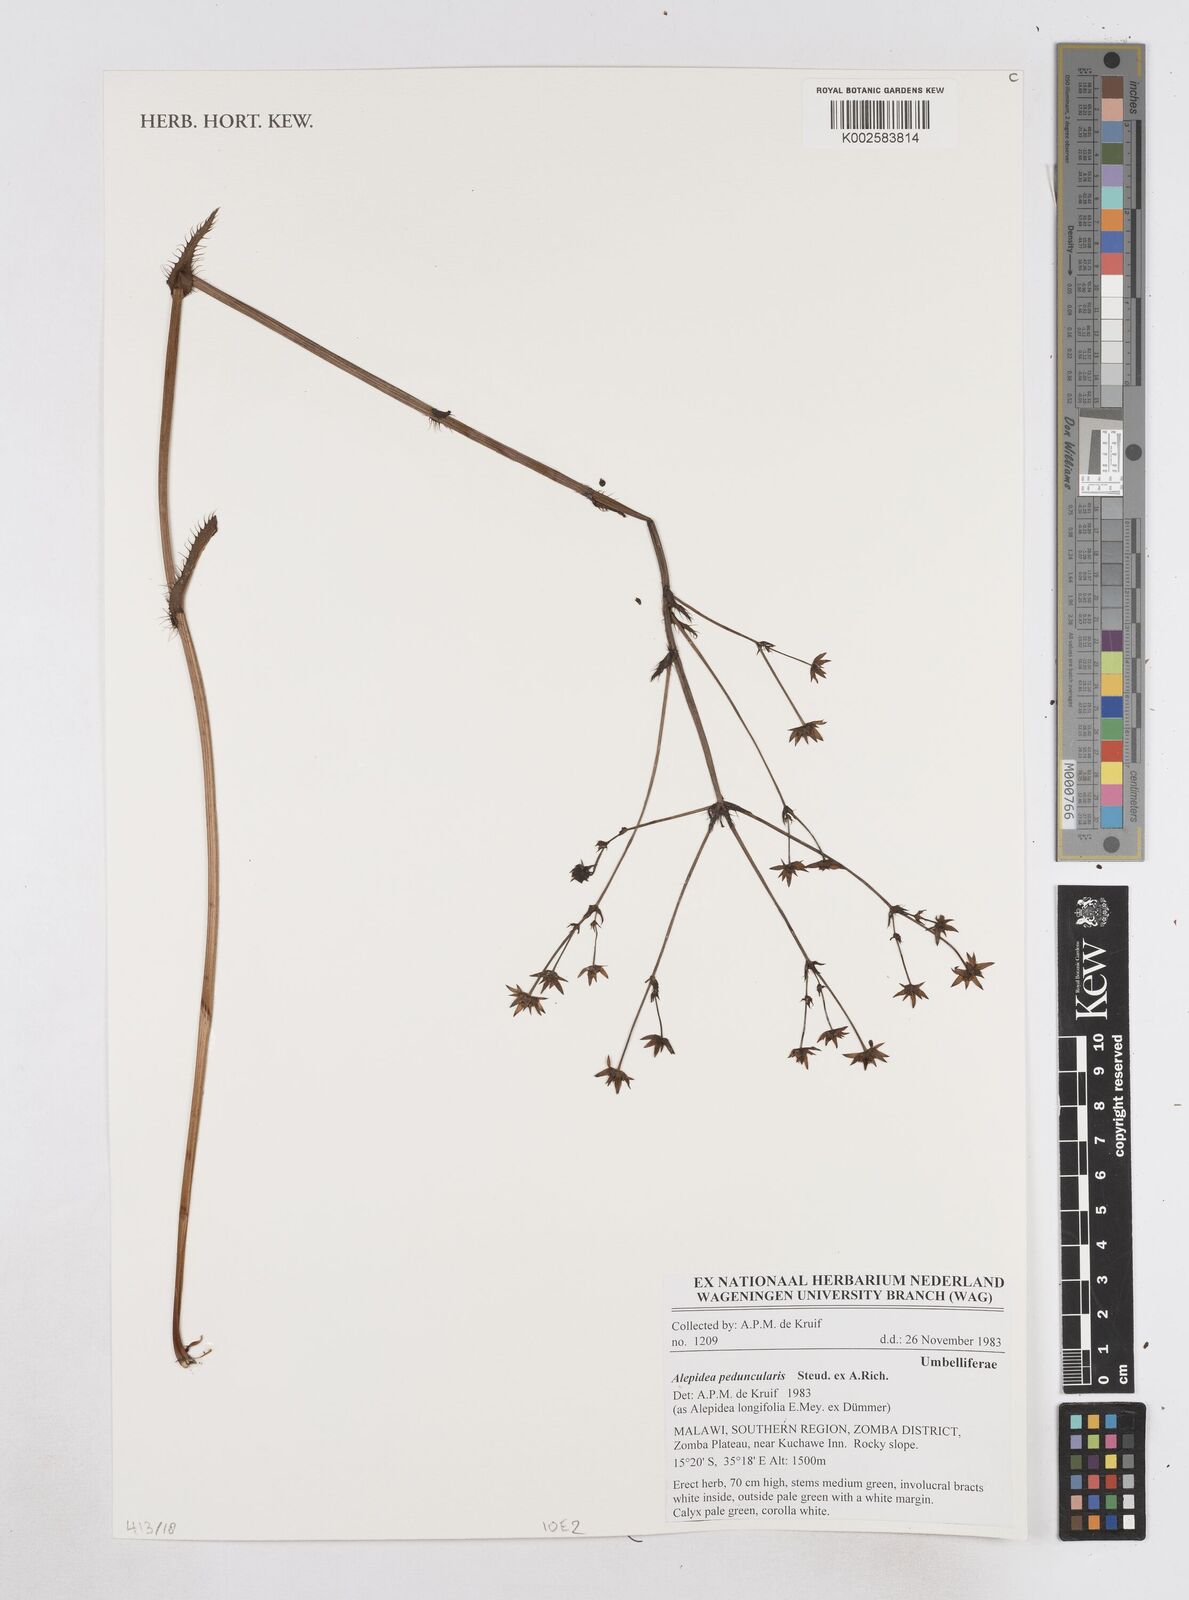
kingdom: Plantae
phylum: Tracheophyta
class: Magnoliopsida
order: Apiales
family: Apiaceae
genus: Alepidea
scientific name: Alepidea peduncularis
